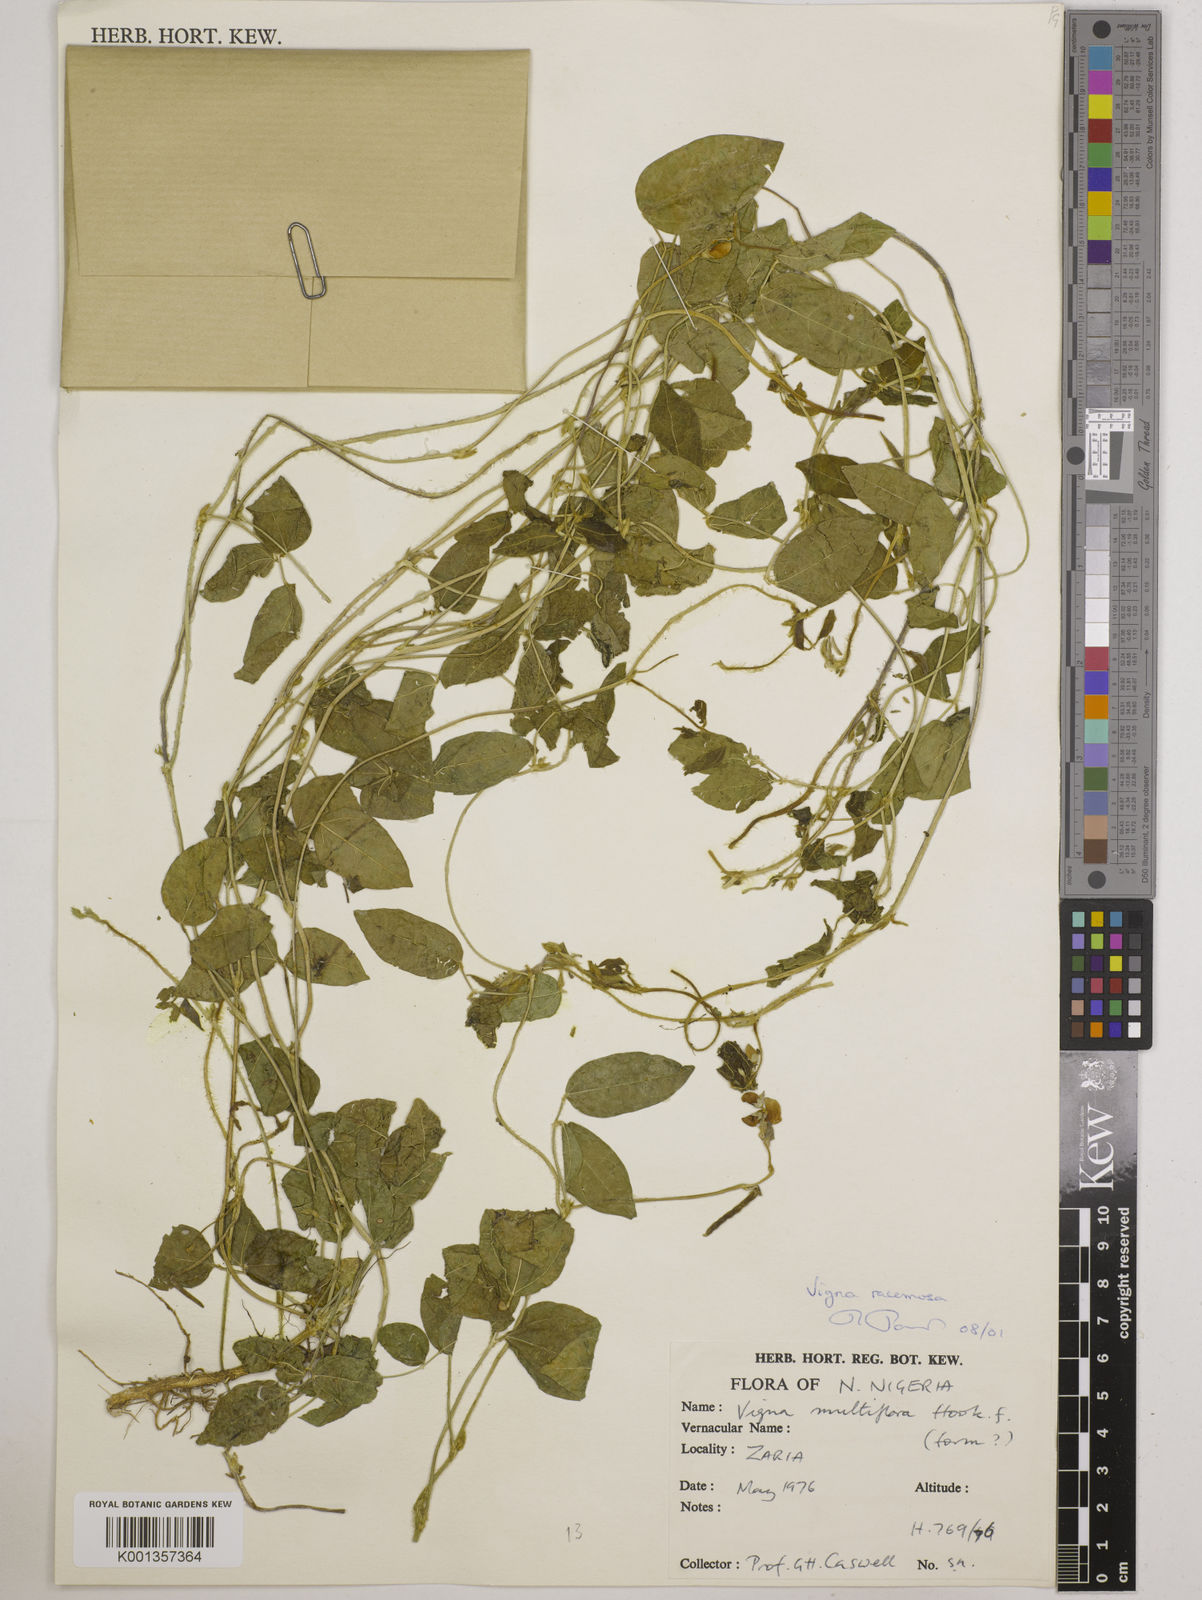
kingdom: Plantae
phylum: Tracheophyta
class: Magnoliopsida
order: Fabales
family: Fabaceae
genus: Vigna
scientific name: Vigna gracilis
